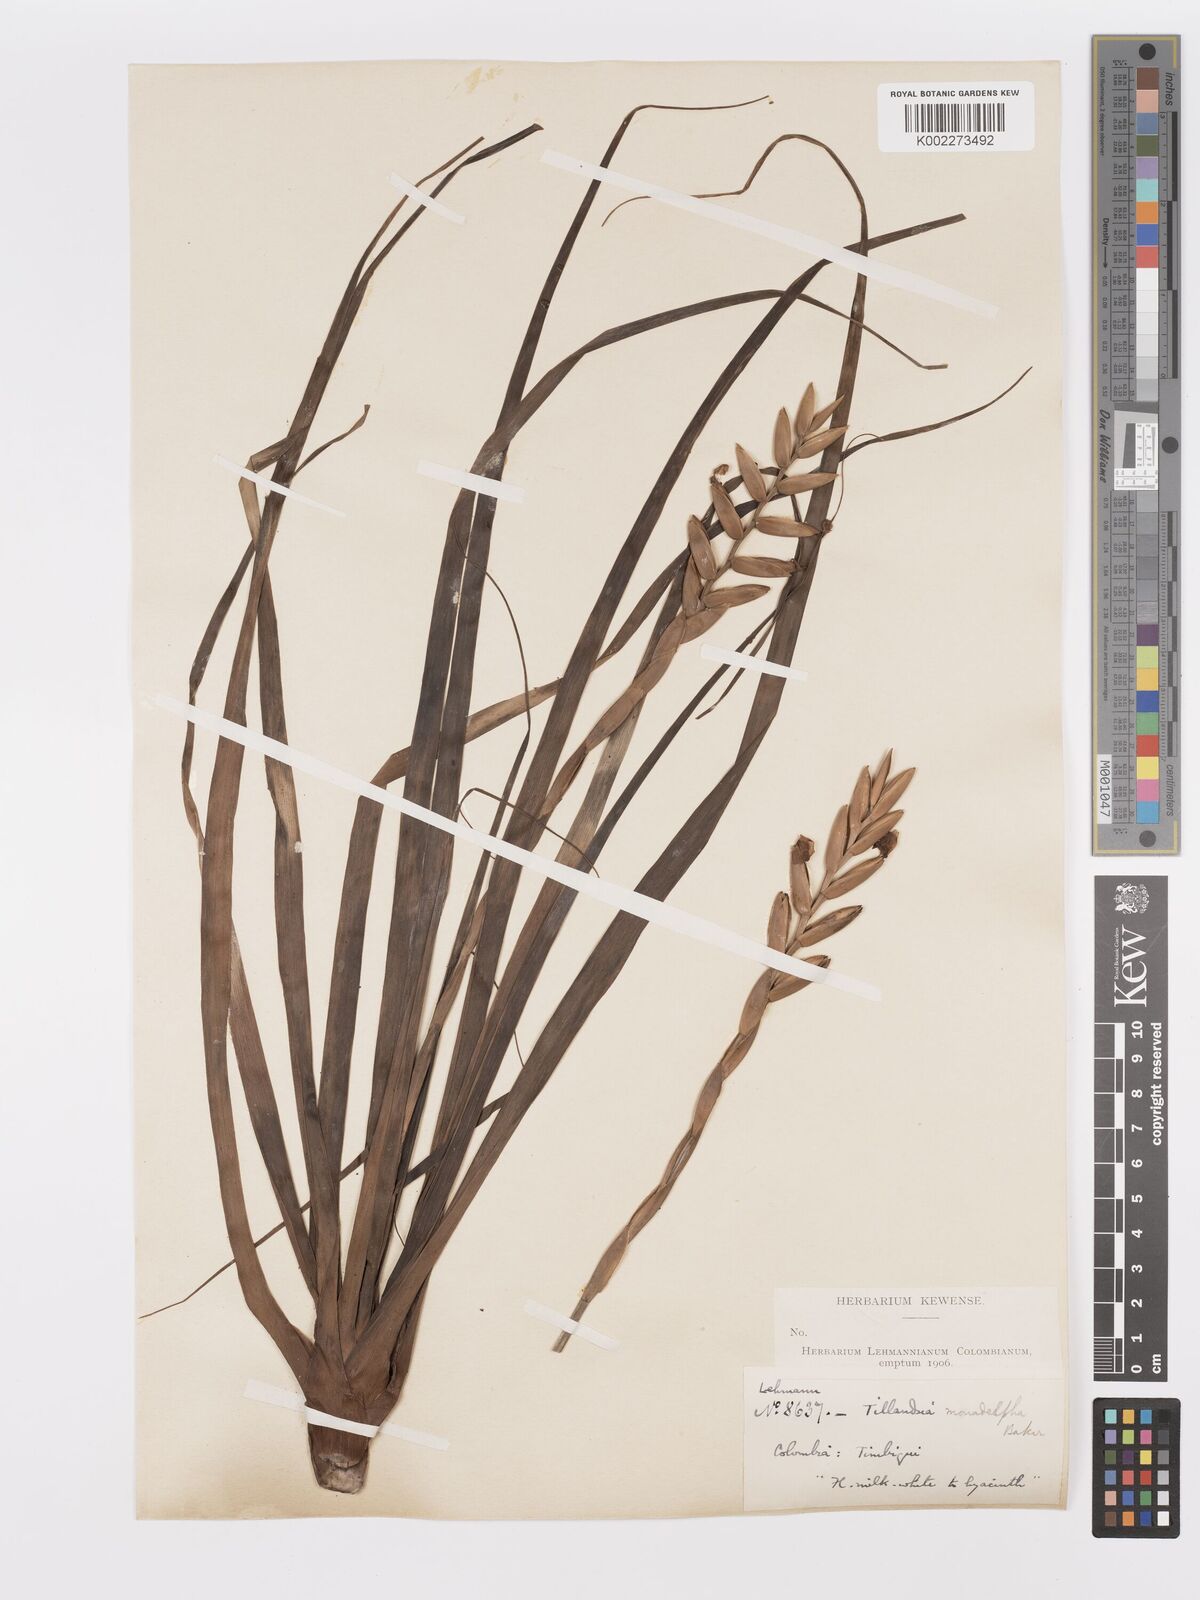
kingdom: Plantae
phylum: Tracheophyta
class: Liliopsida
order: Poales
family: Bromeliaceae
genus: Lemeltonia
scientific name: Lemeltonia monadelpha
